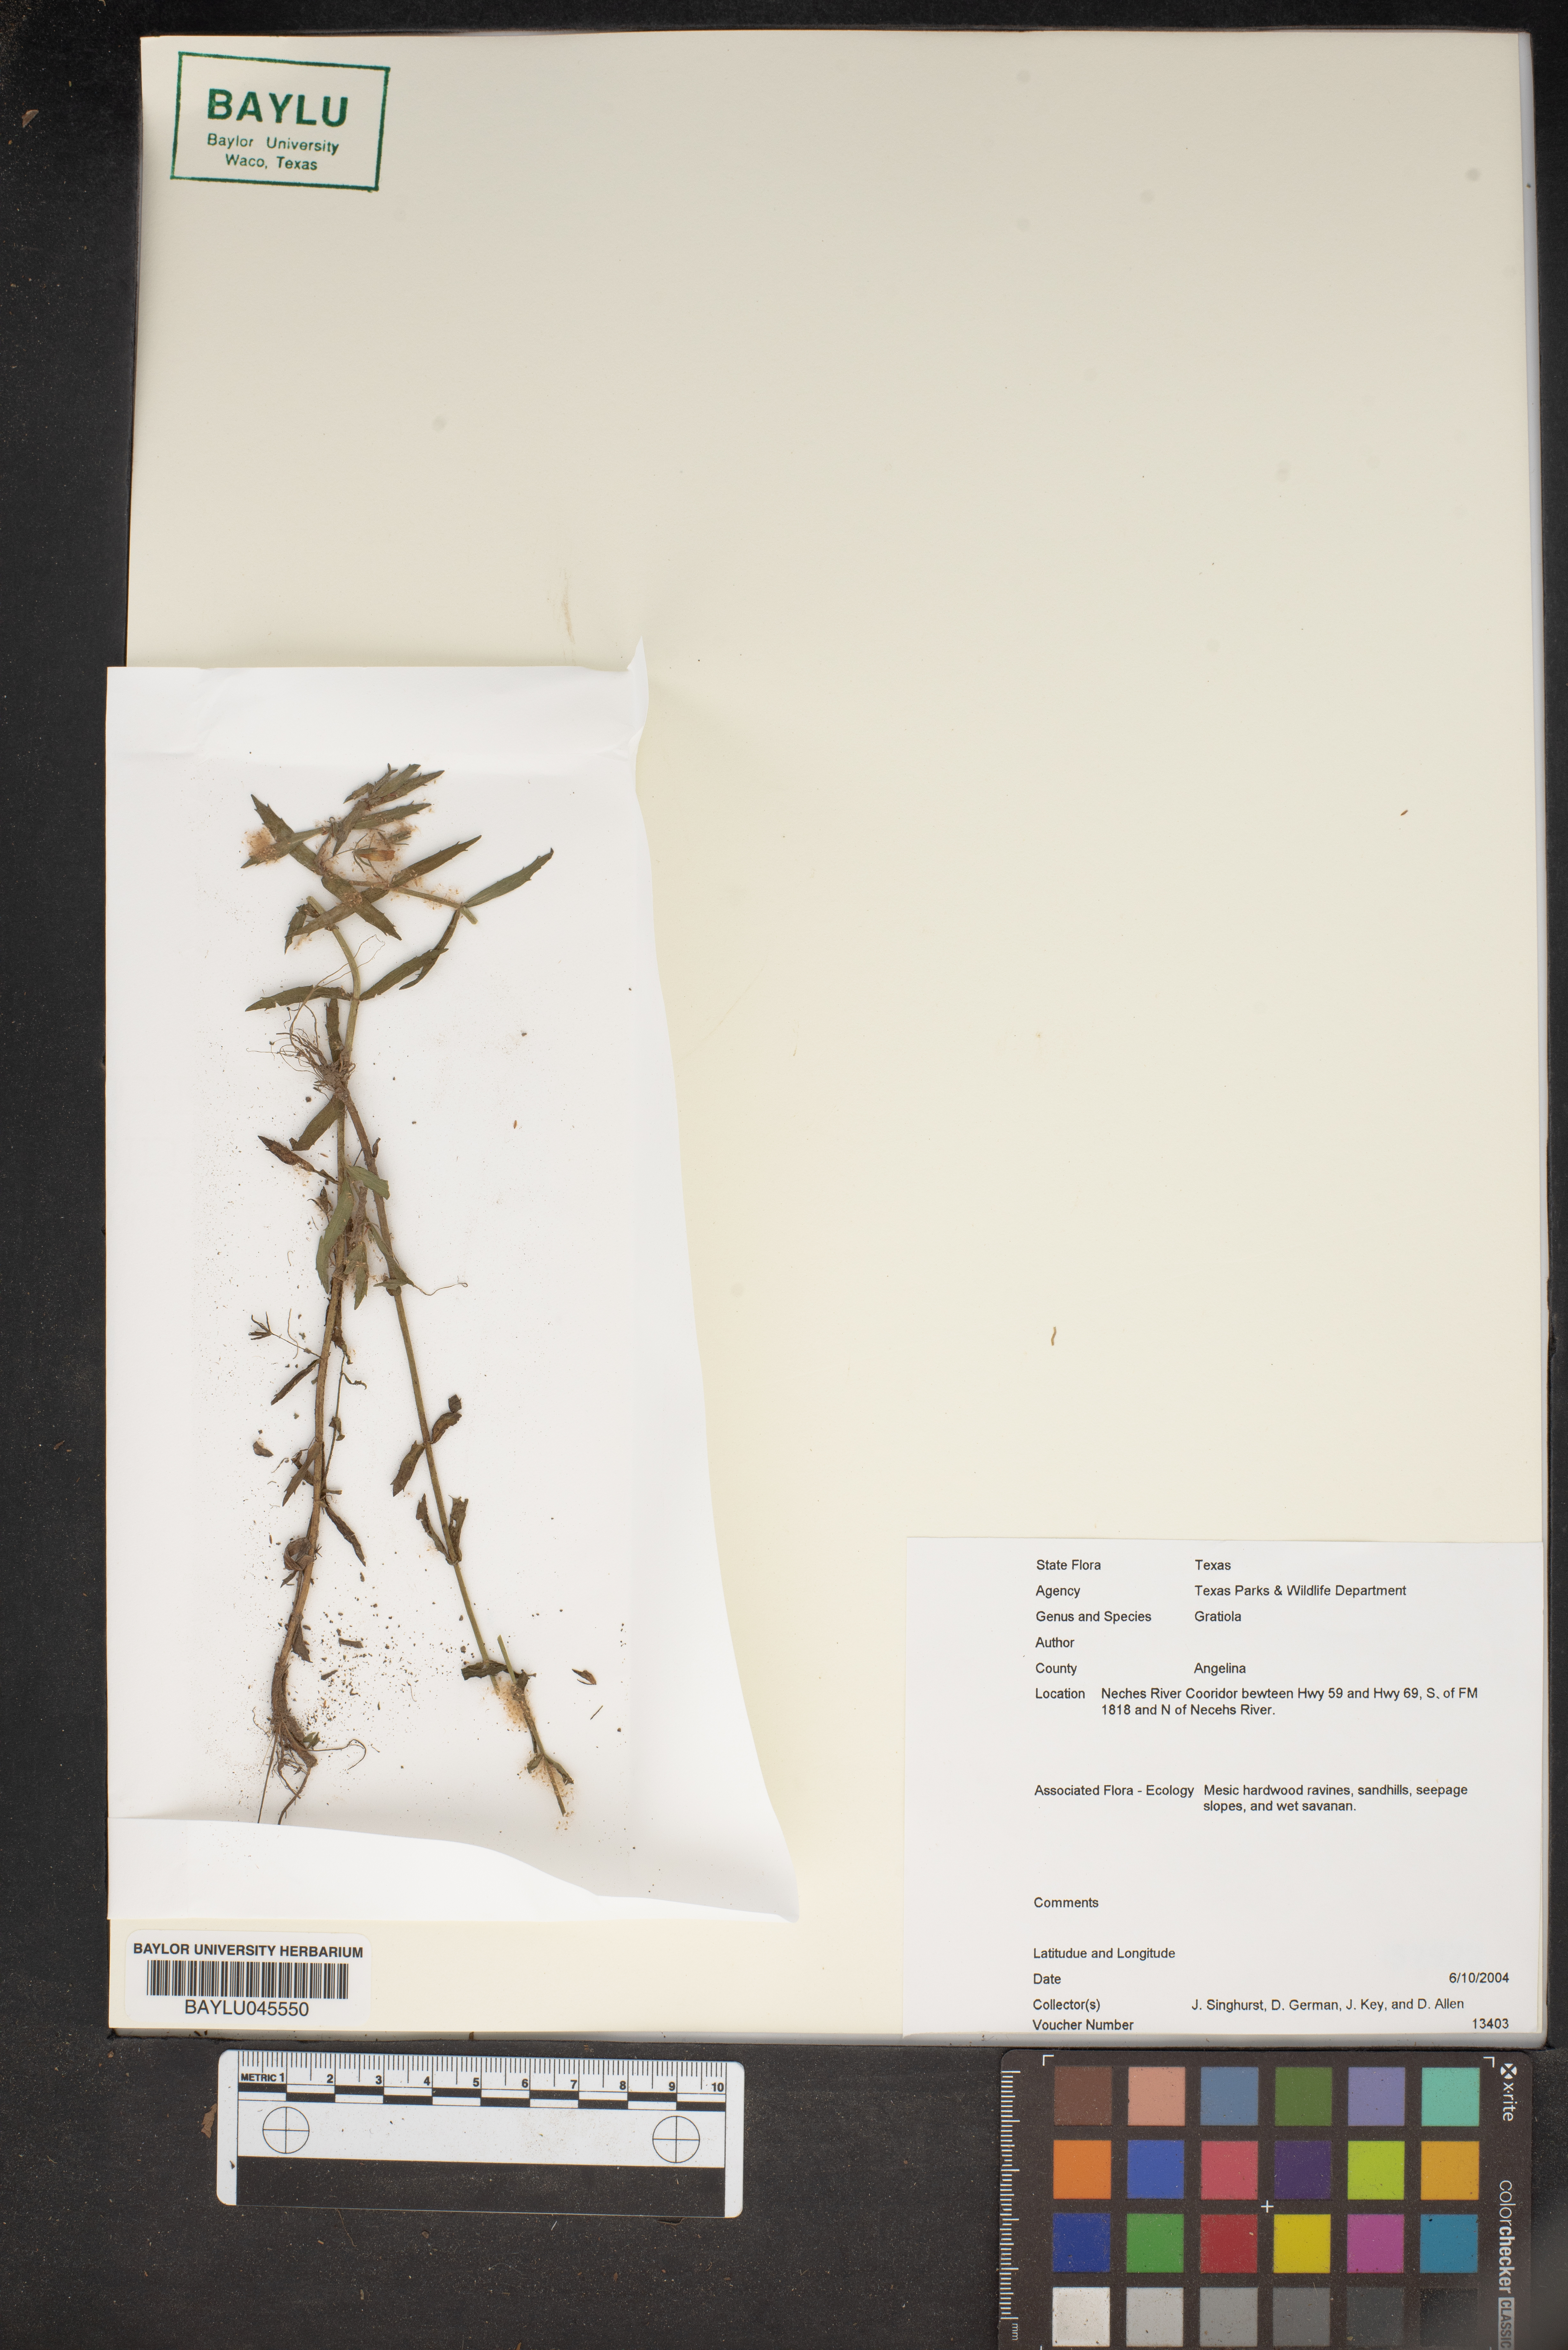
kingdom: Plantae
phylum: Tracheophyta
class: Magnoliopsida
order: Lamiales
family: Plantaginaceae
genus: Gratiola
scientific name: Gratiola
